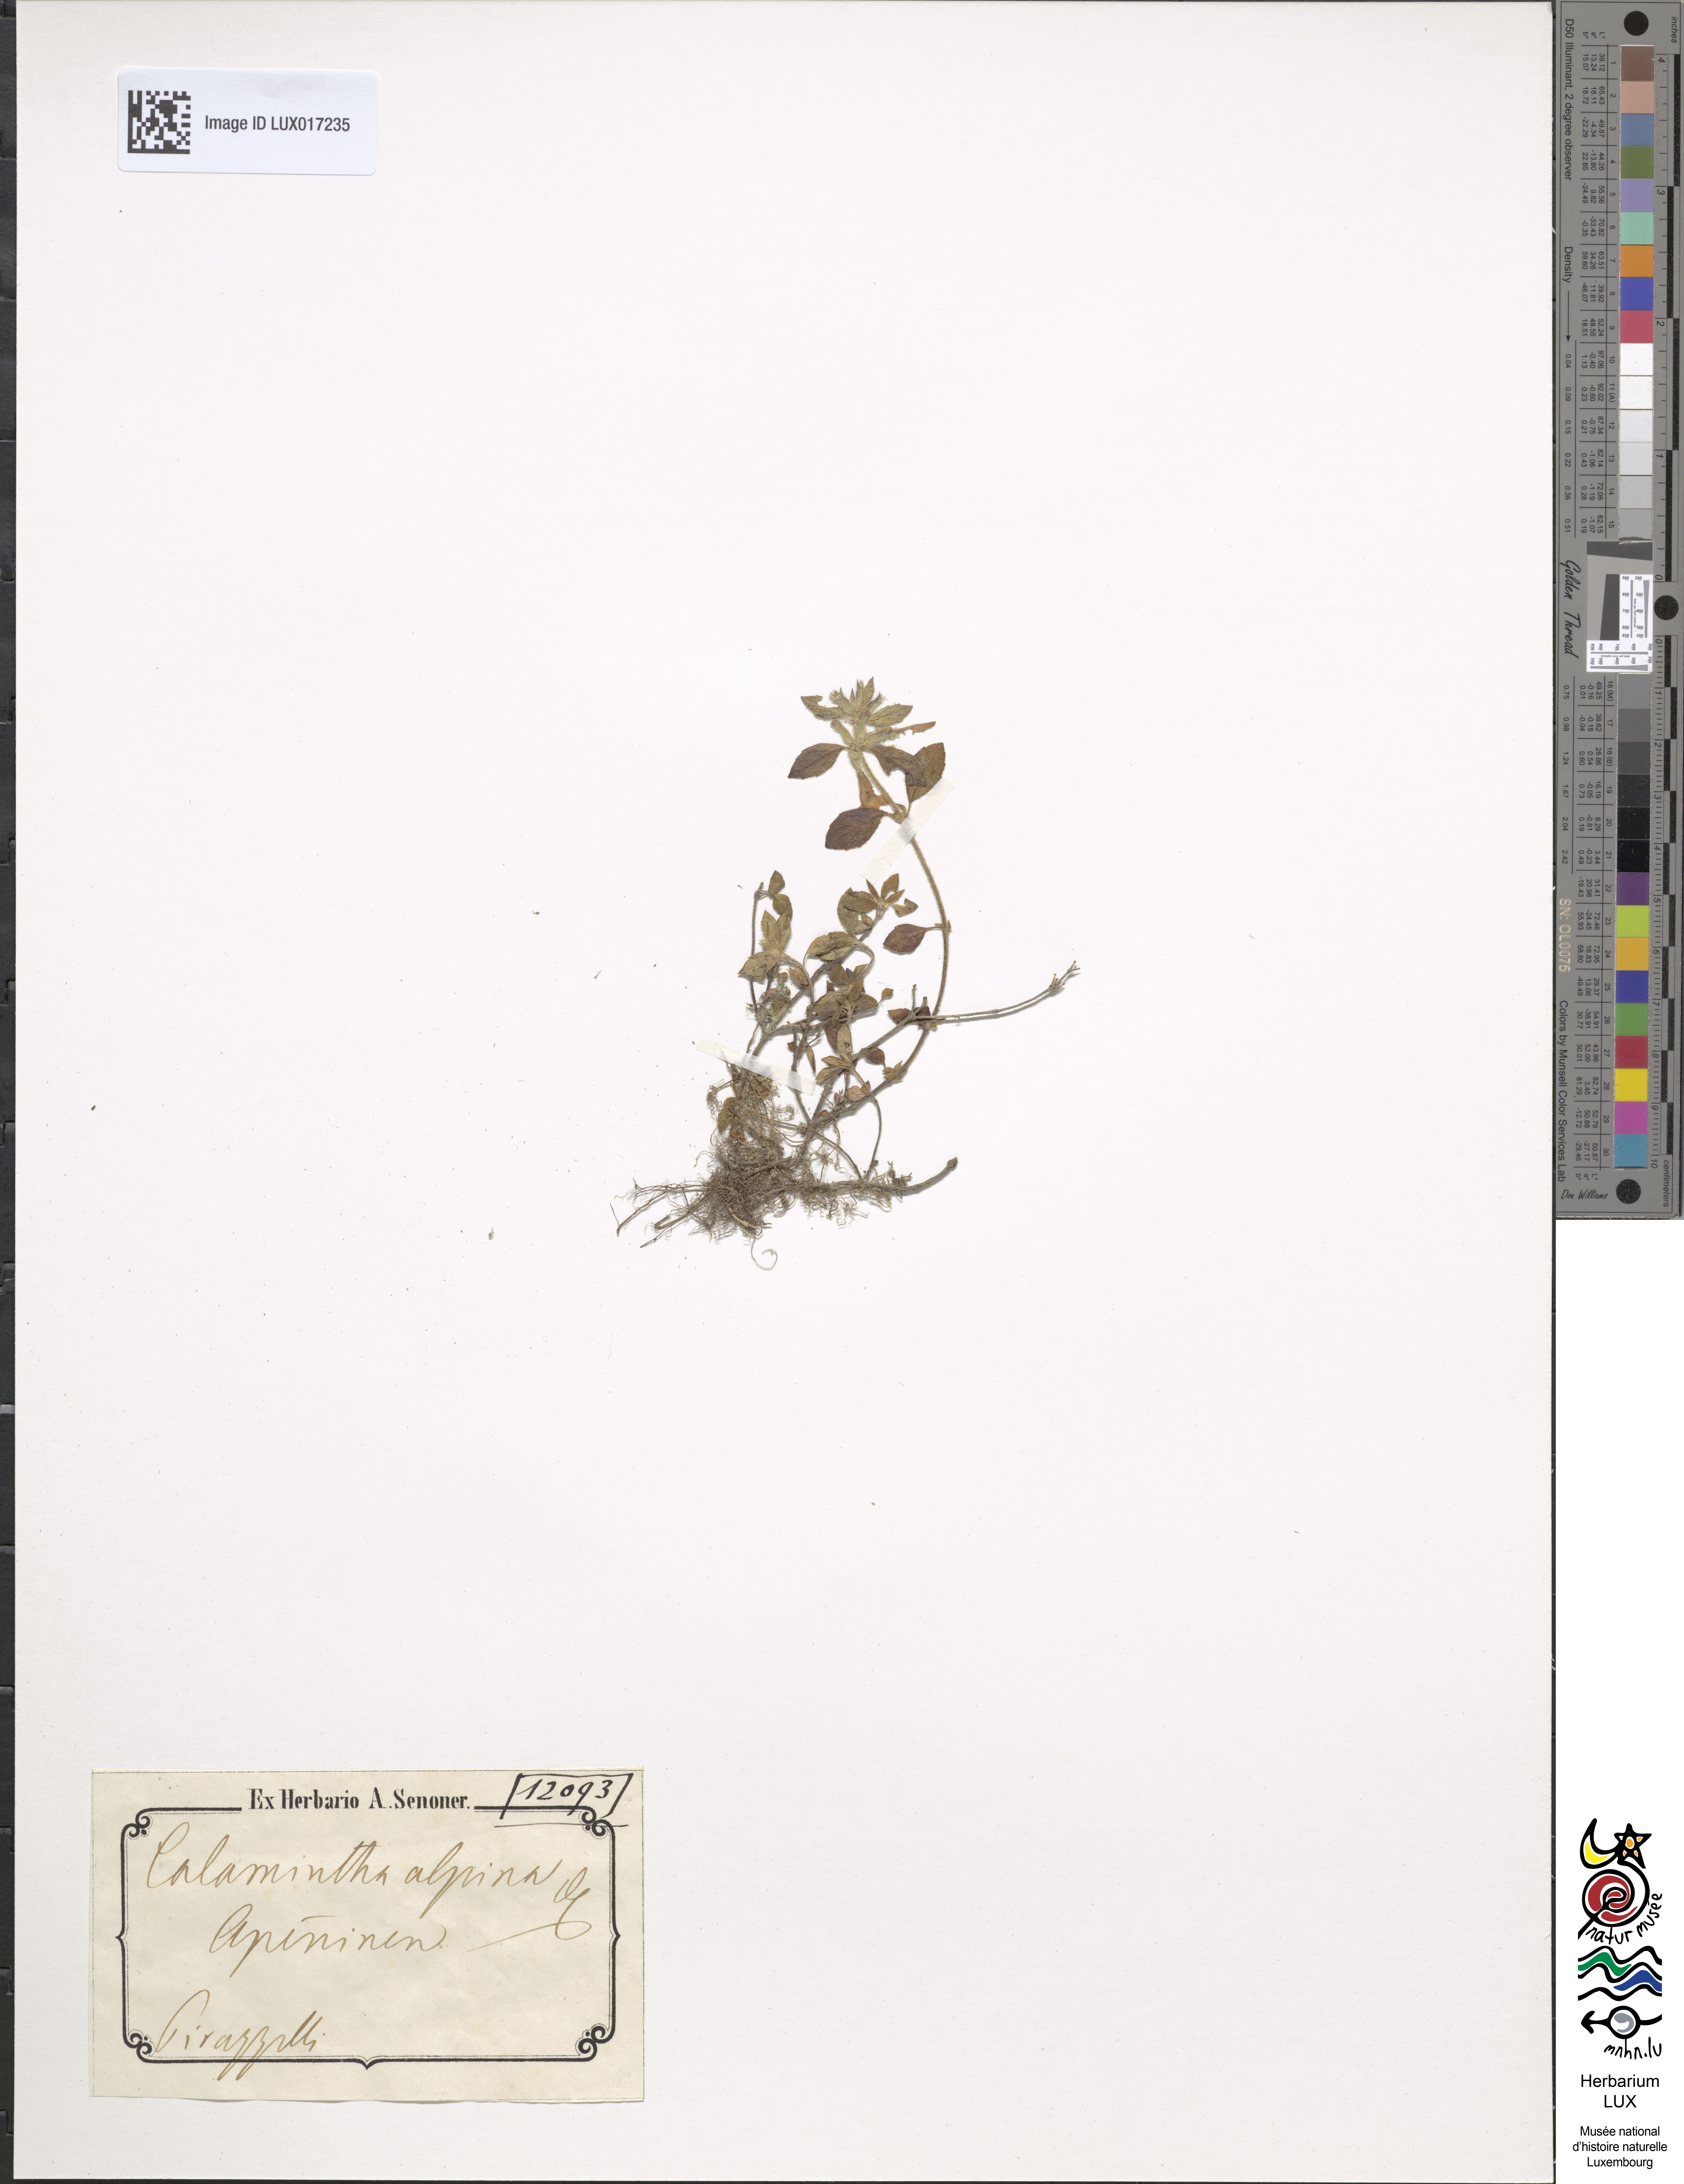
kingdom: Plantae
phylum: Tracheophyta
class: Magnoliopsida
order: Lamiales
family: Lamiaceae
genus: Clinopodium
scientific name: Clinopodium alpinum
